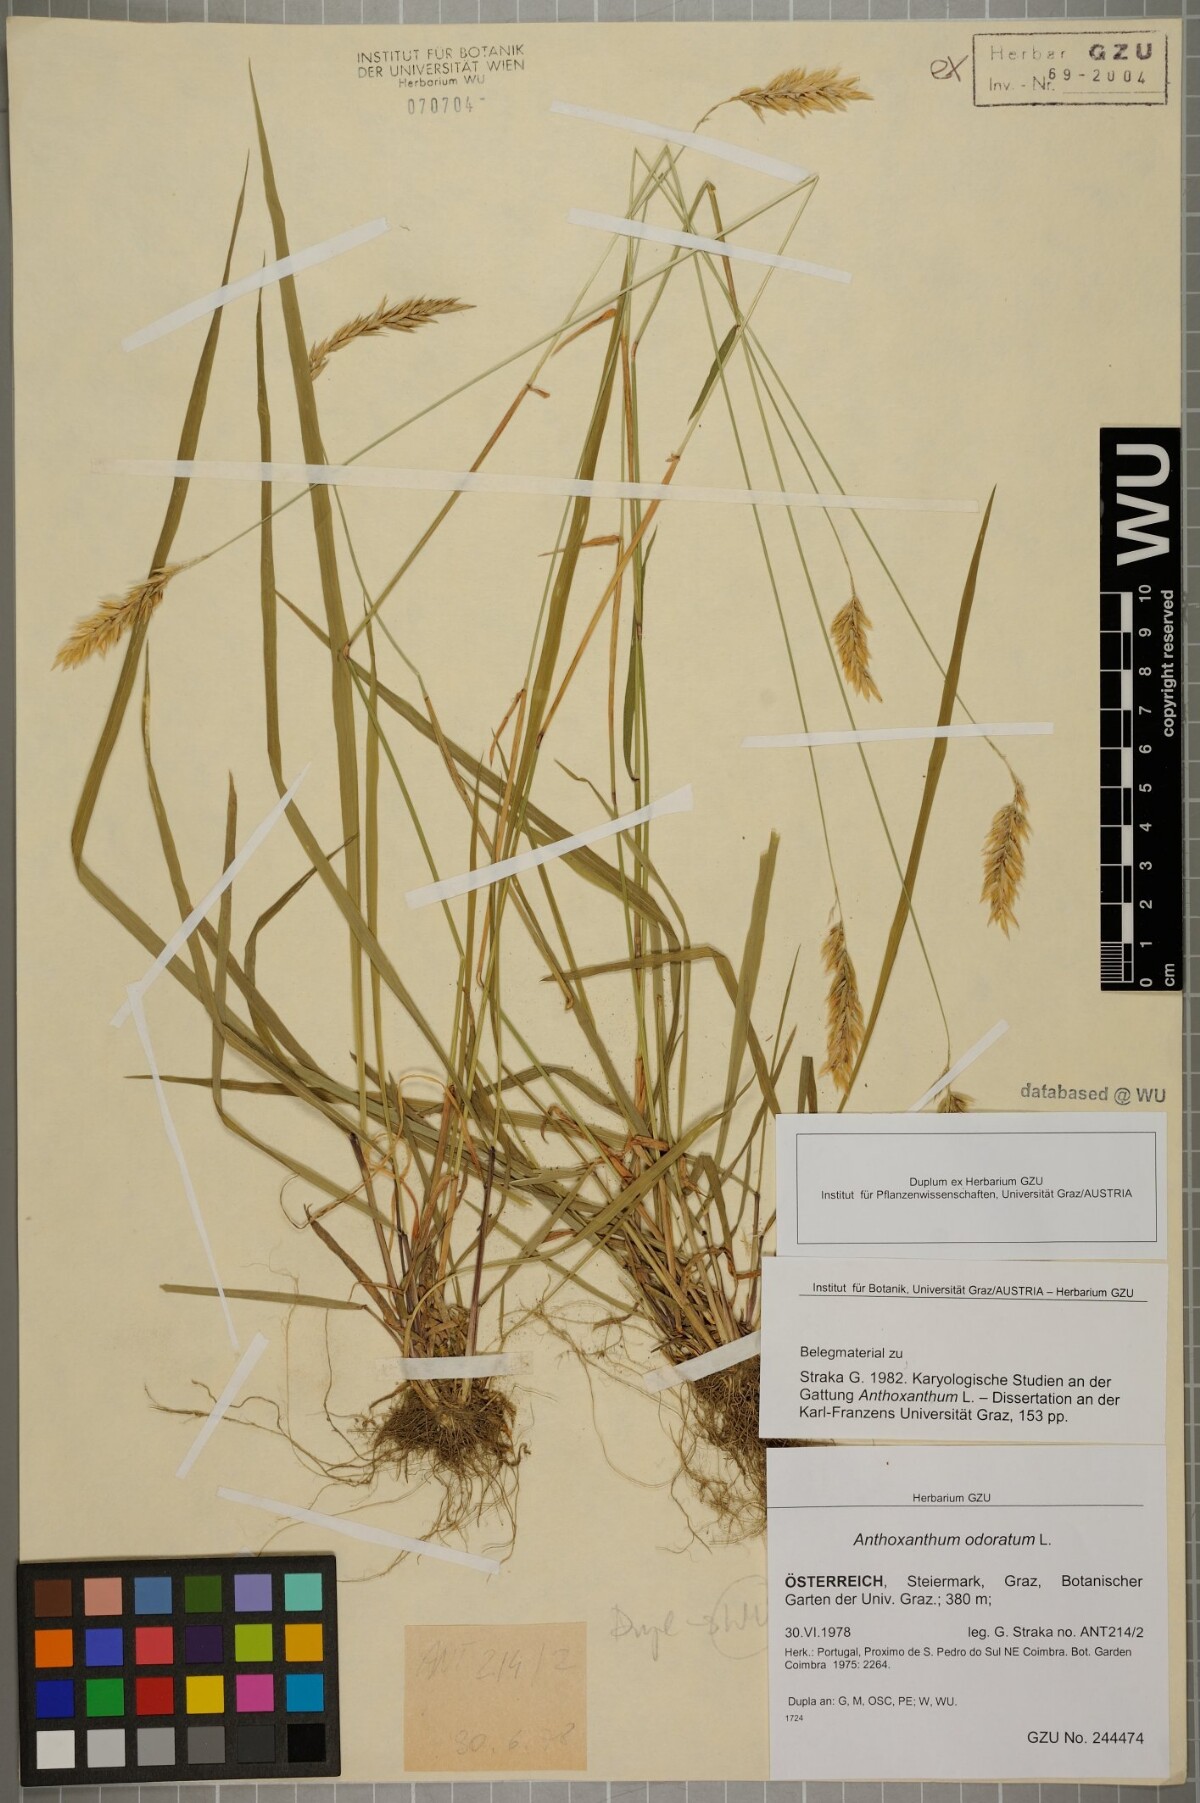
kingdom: Plantae
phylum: Tracheophyta
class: Liliopsida
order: Poales
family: Poaceae
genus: Anthoxanthum
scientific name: Anthoxanthum odoratum
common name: Sweet vernalgrass
